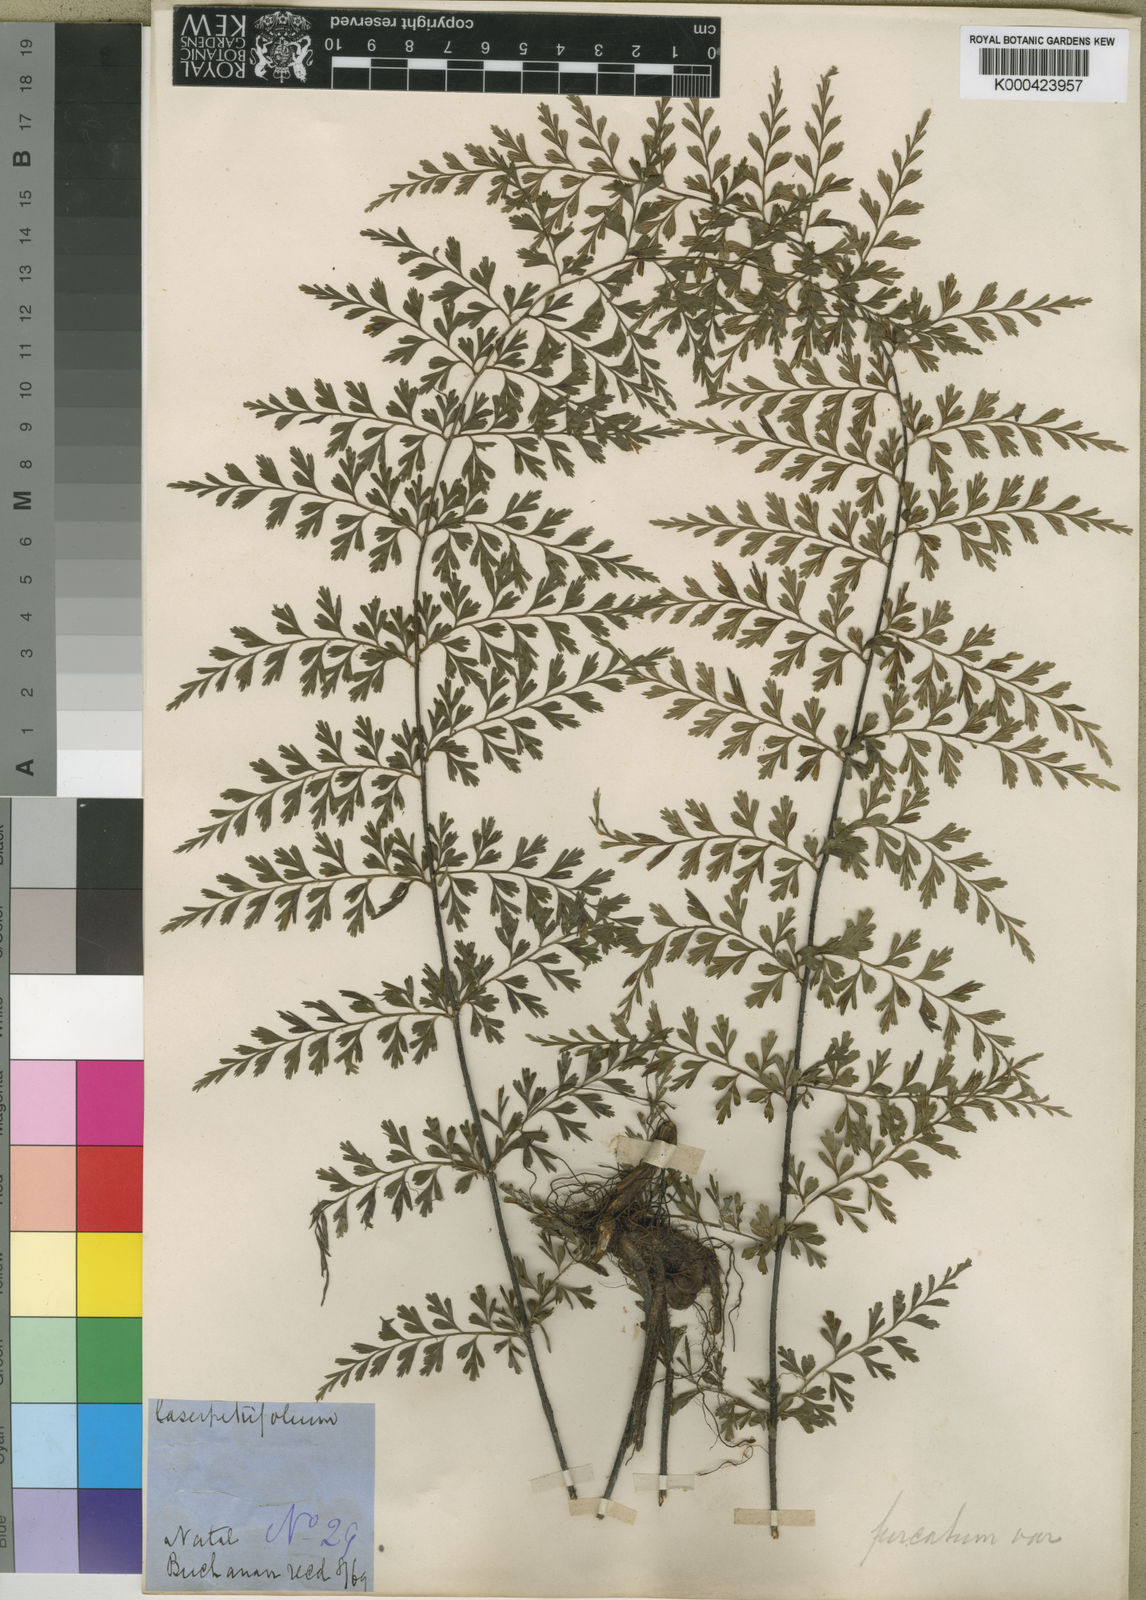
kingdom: Plantae
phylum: Tracheophyta
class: Polypodiopsida
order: Polypodiales
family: Aspleniaceae
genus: Asplenium
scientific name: Asplenium aethiopicum
